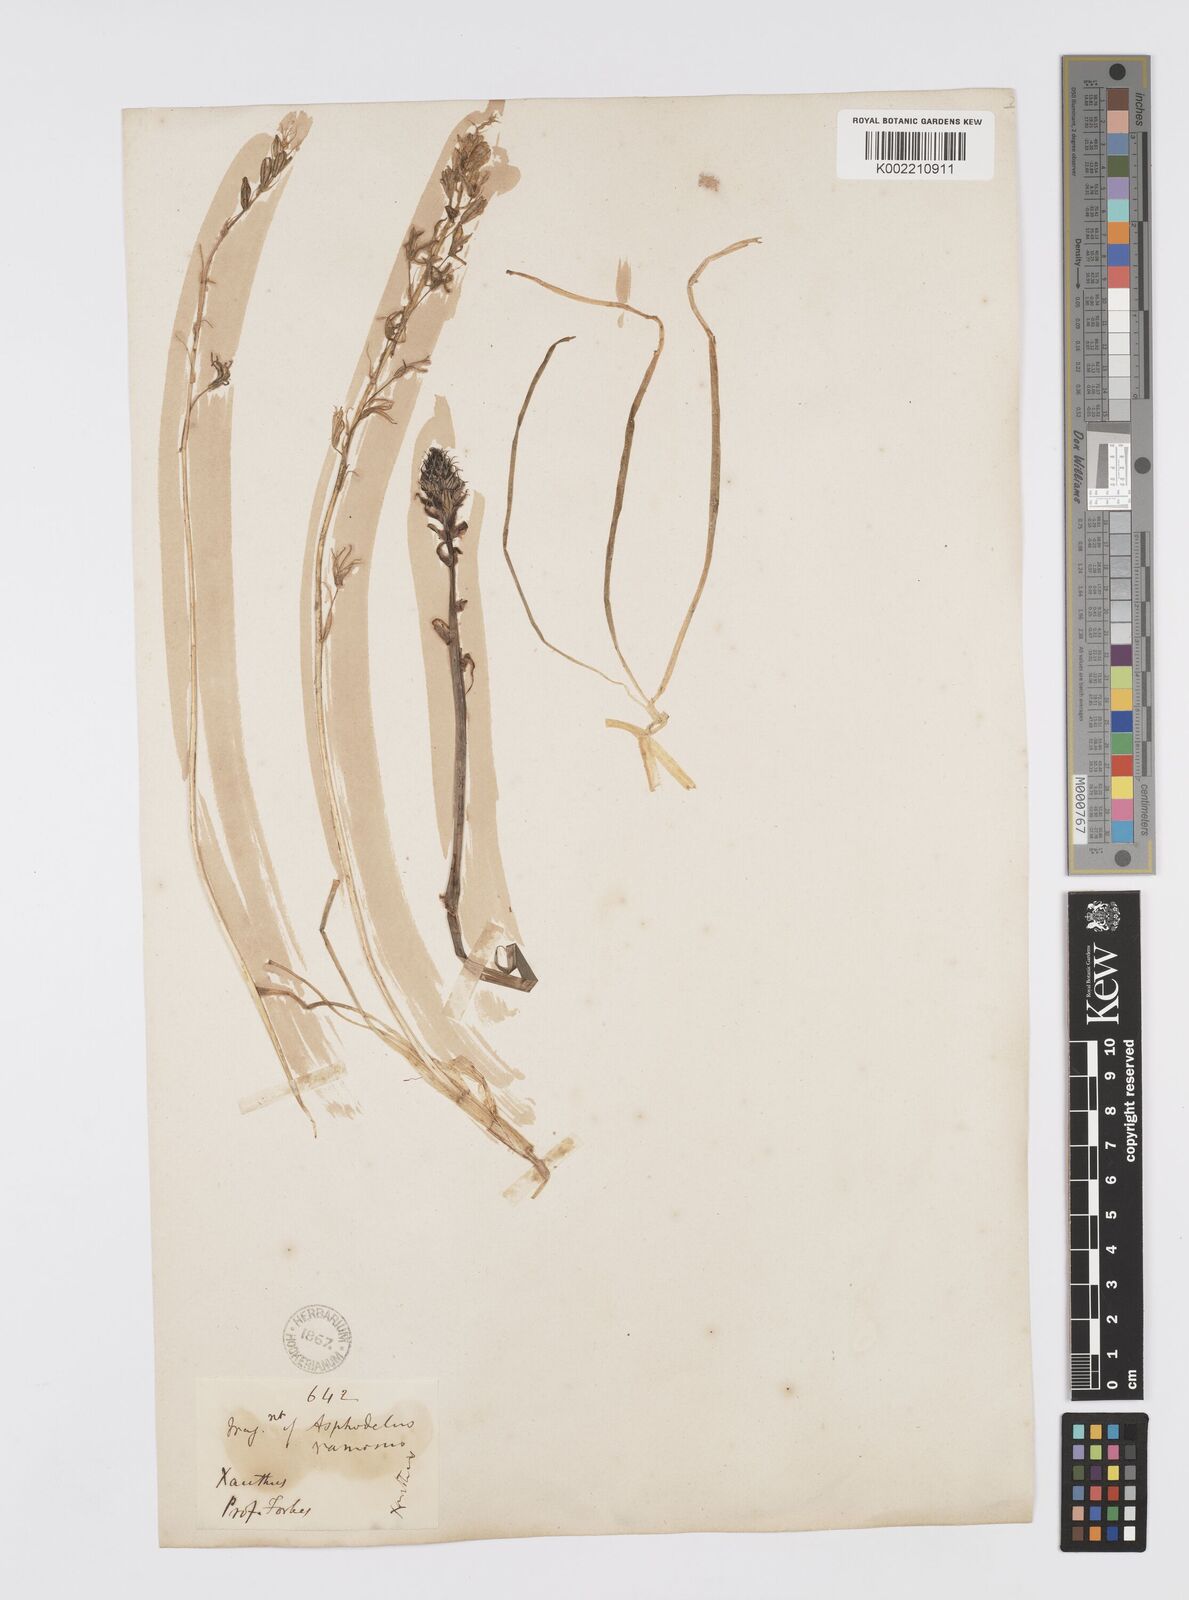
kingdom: Plantae
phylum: Tracheophyta
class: Liliopsida
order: Asparagales
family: Asphodelaceae
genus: Asphodelus
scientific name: Asphodelus
